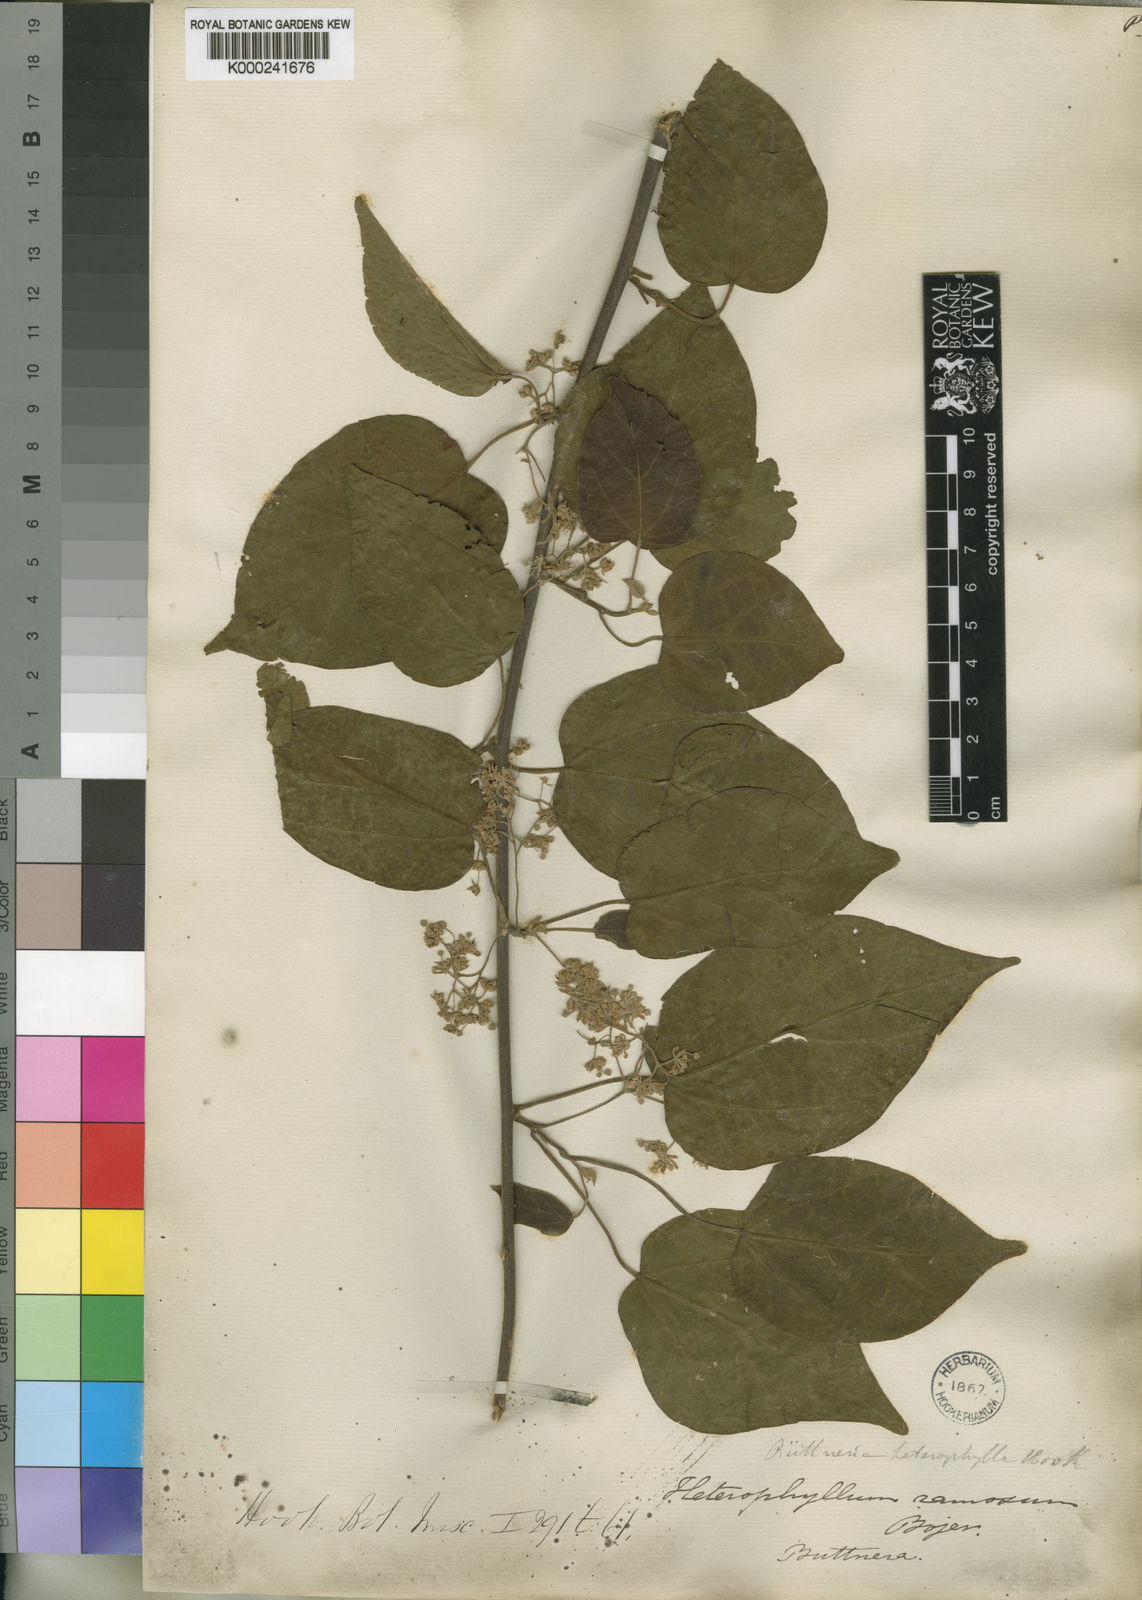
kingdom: Plantae
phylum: Tracheophyta
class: Magnoliopsida
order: Malvales
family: Malvaceae
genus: Byttneria
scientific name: Byttneria heterophylla
